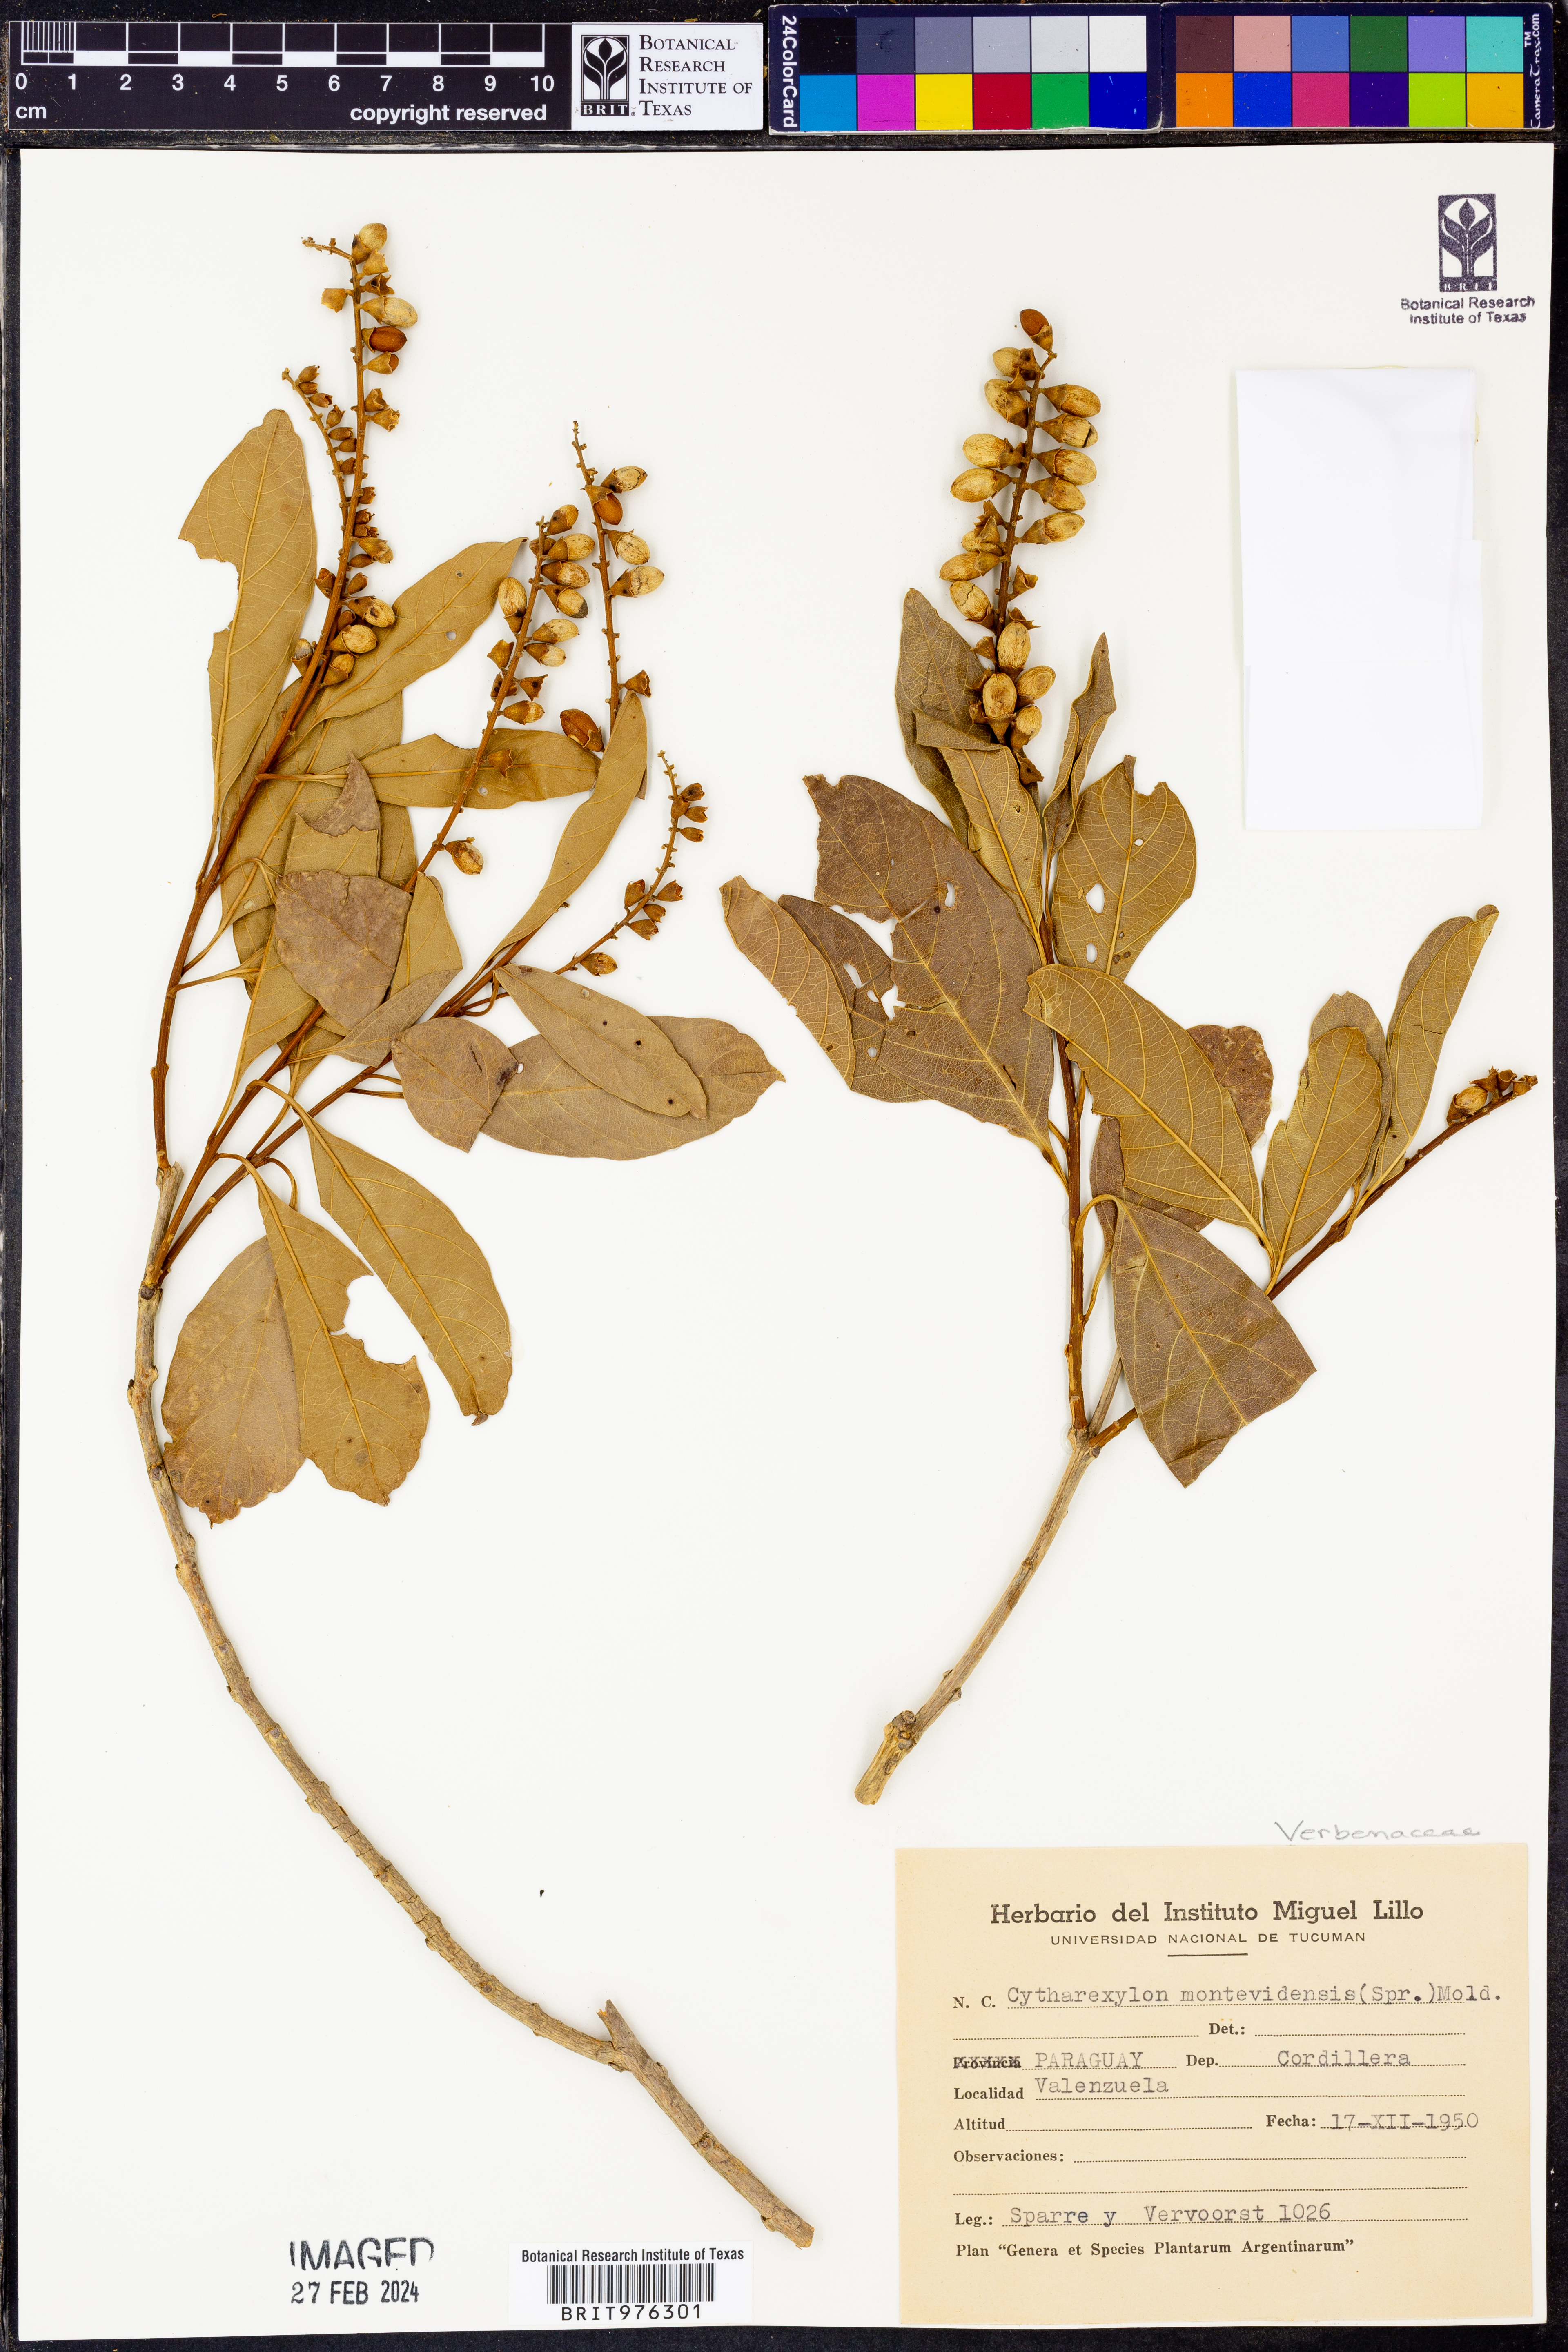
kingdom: Plantae
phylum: Tracheophyta
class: Magnoliopsida
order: Lamiales
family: Verbenaceae
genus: Citharexylum
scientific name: Citharexylum
